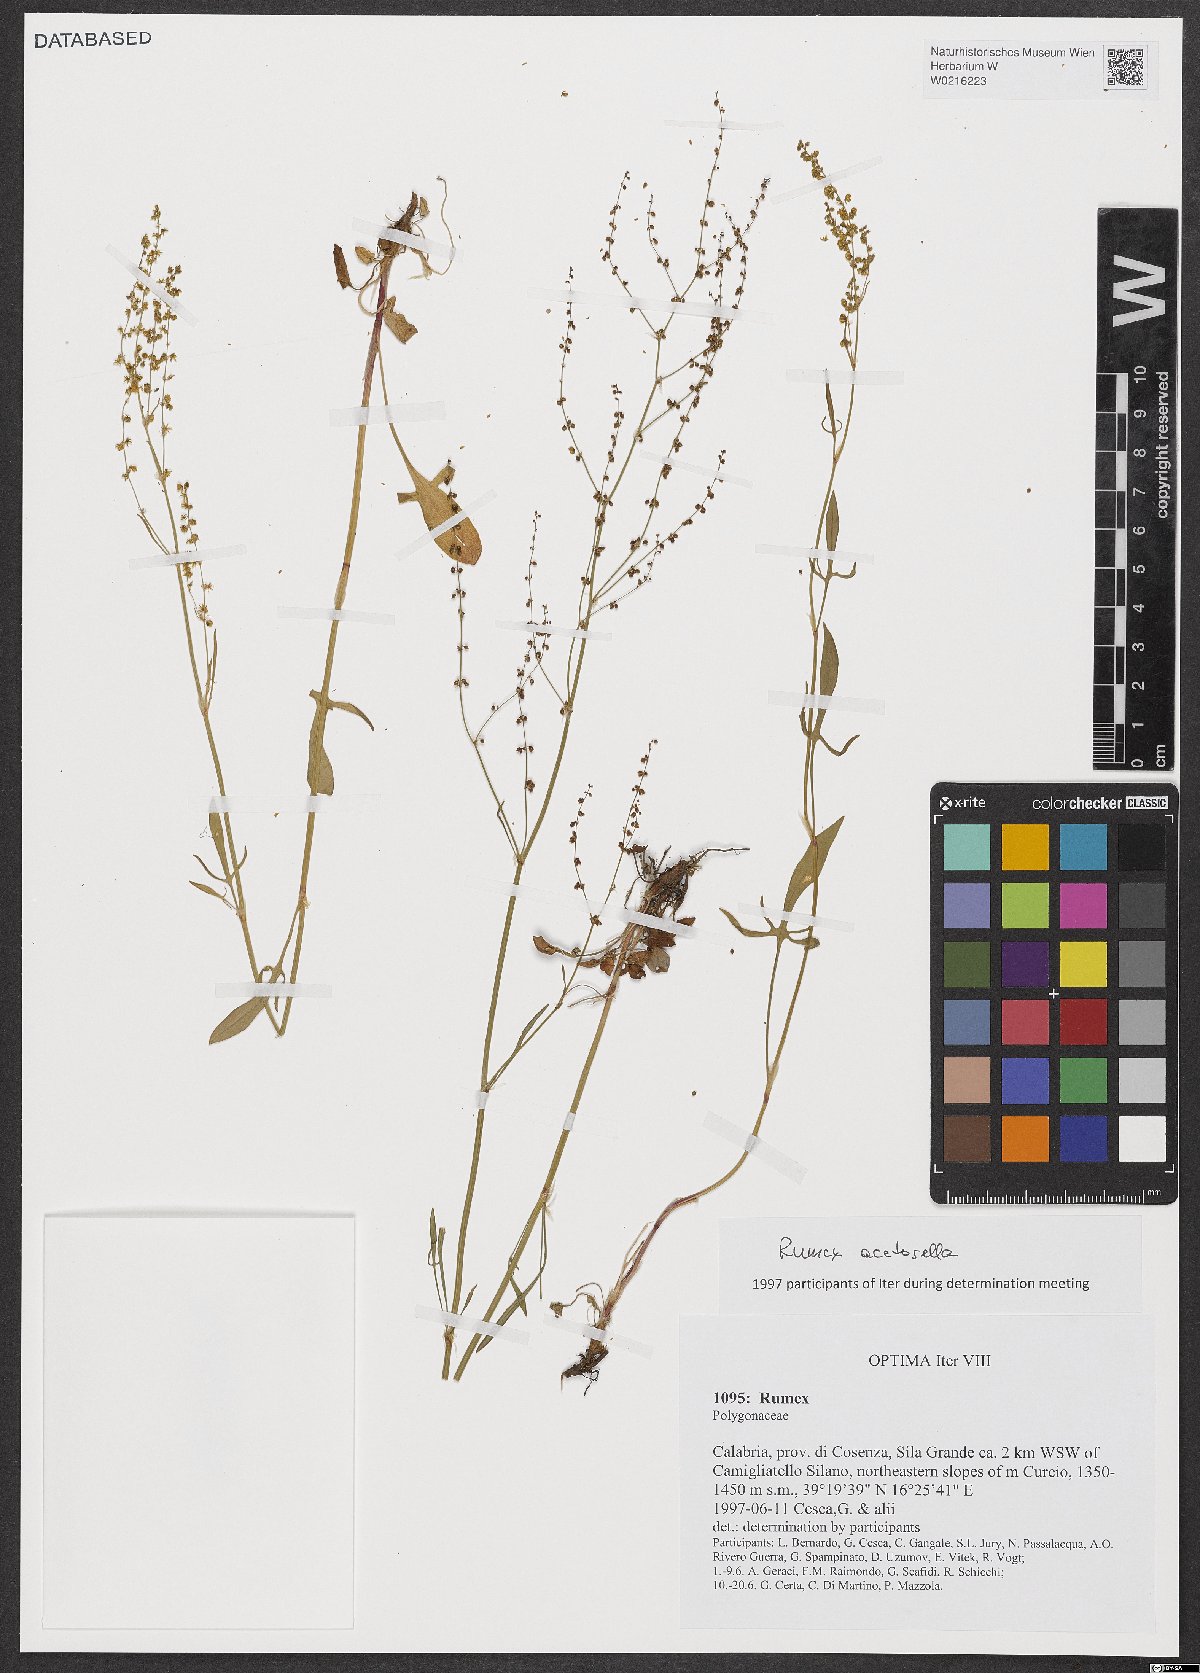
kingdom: Plantae
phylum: Tracheophyta
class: Magnoliopsida
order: Caryophyllales
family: Polygonaceae
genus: Rumex
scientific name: Rumex acetosella
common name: Common sheep sorrel
